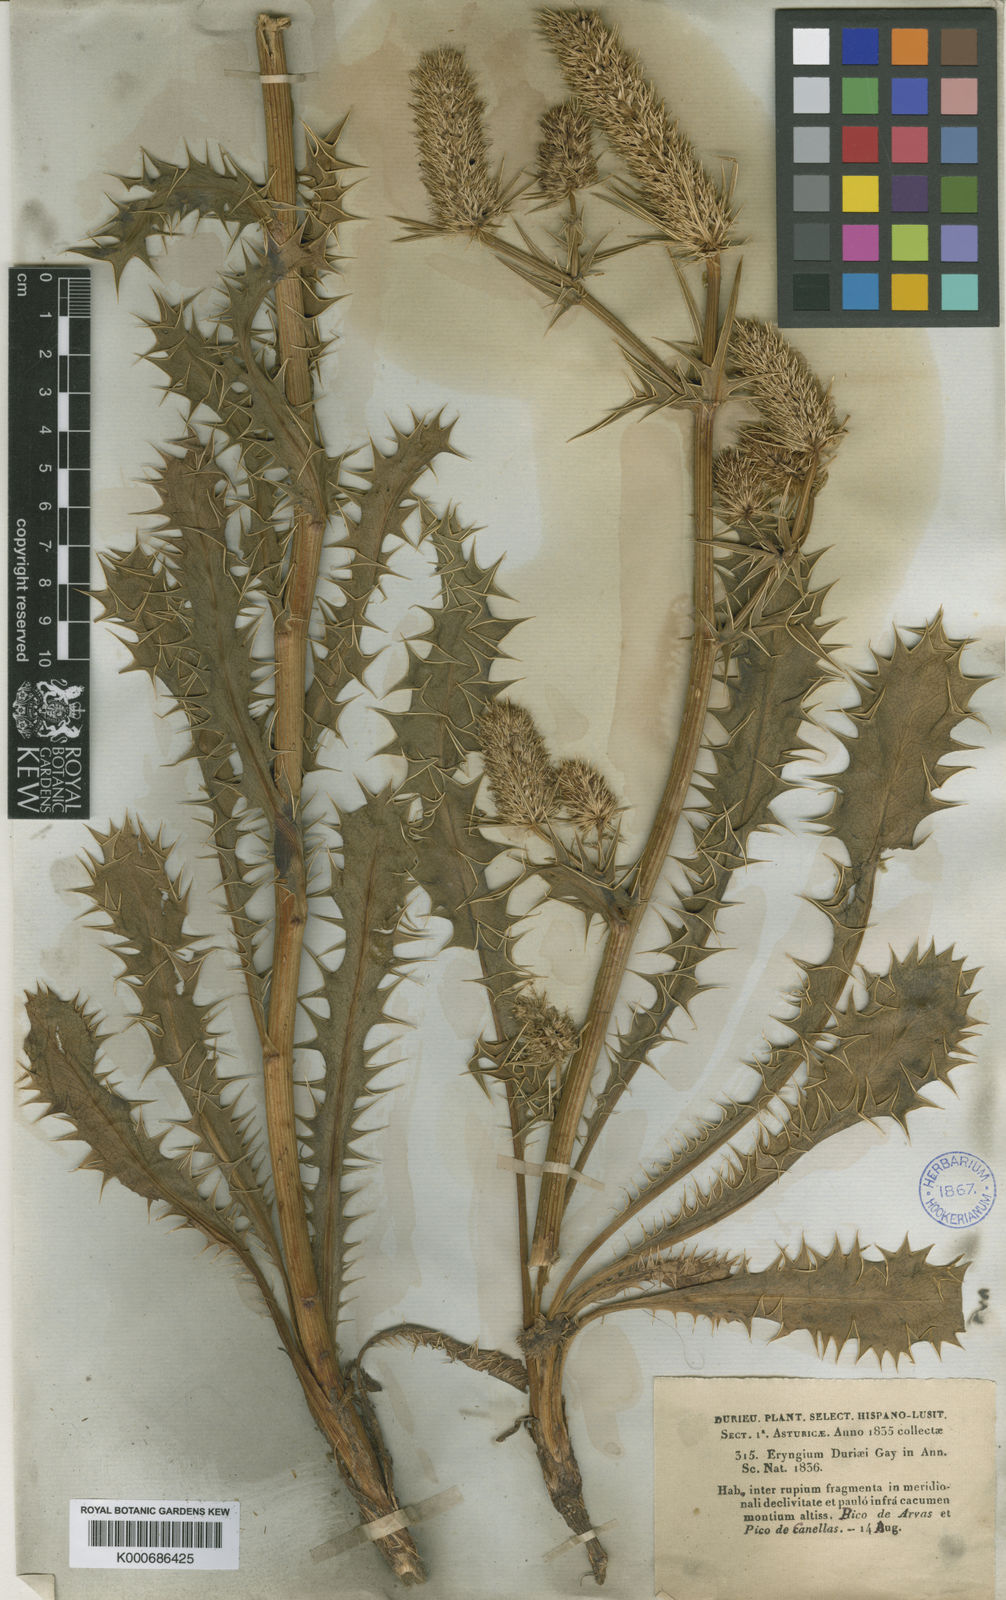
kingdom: Plantae
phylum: Tracheophyta
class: Magnoliopsida
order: Apiales
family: Apiaceae
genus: Eryngium
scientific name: Eryngium duriaei
